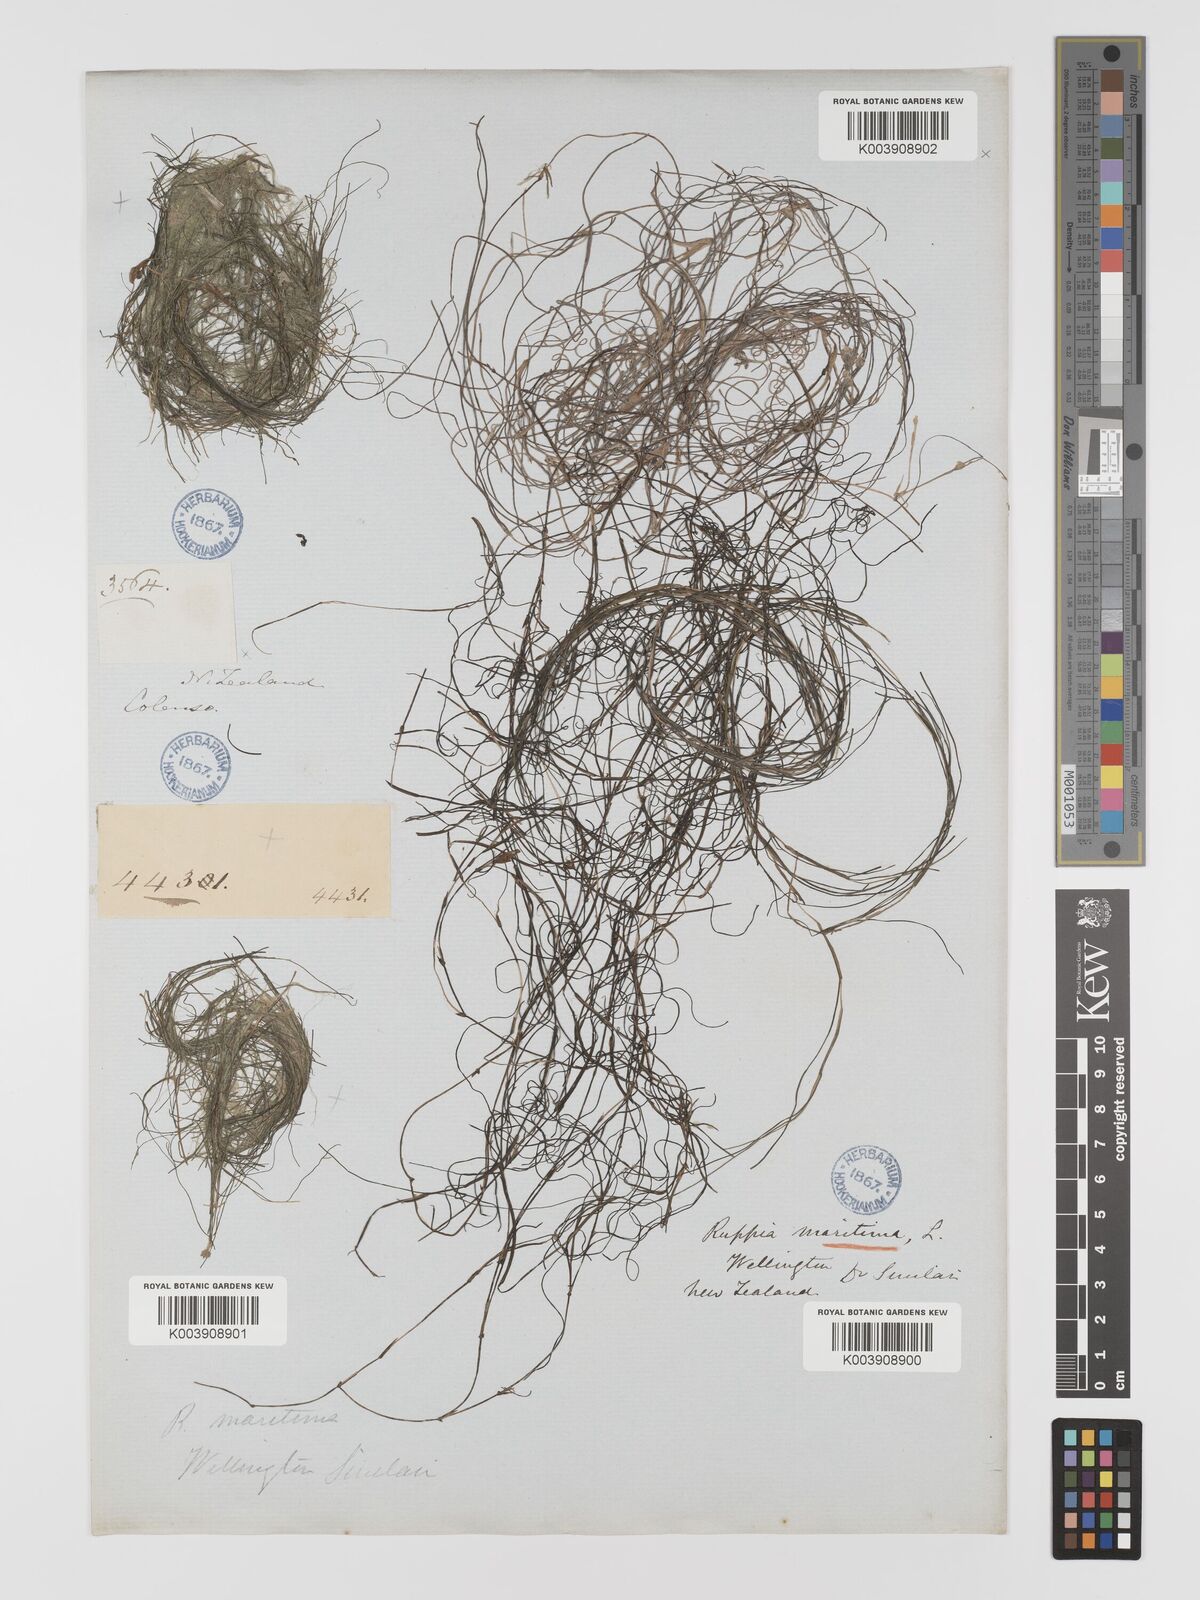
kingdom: Plantae
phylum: Tracheophyta
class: Liliopsida
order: Alismatales
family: Ruppiaceae
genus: Ruppia
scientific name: Ruppia maritima
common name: Beaked tasselweed
